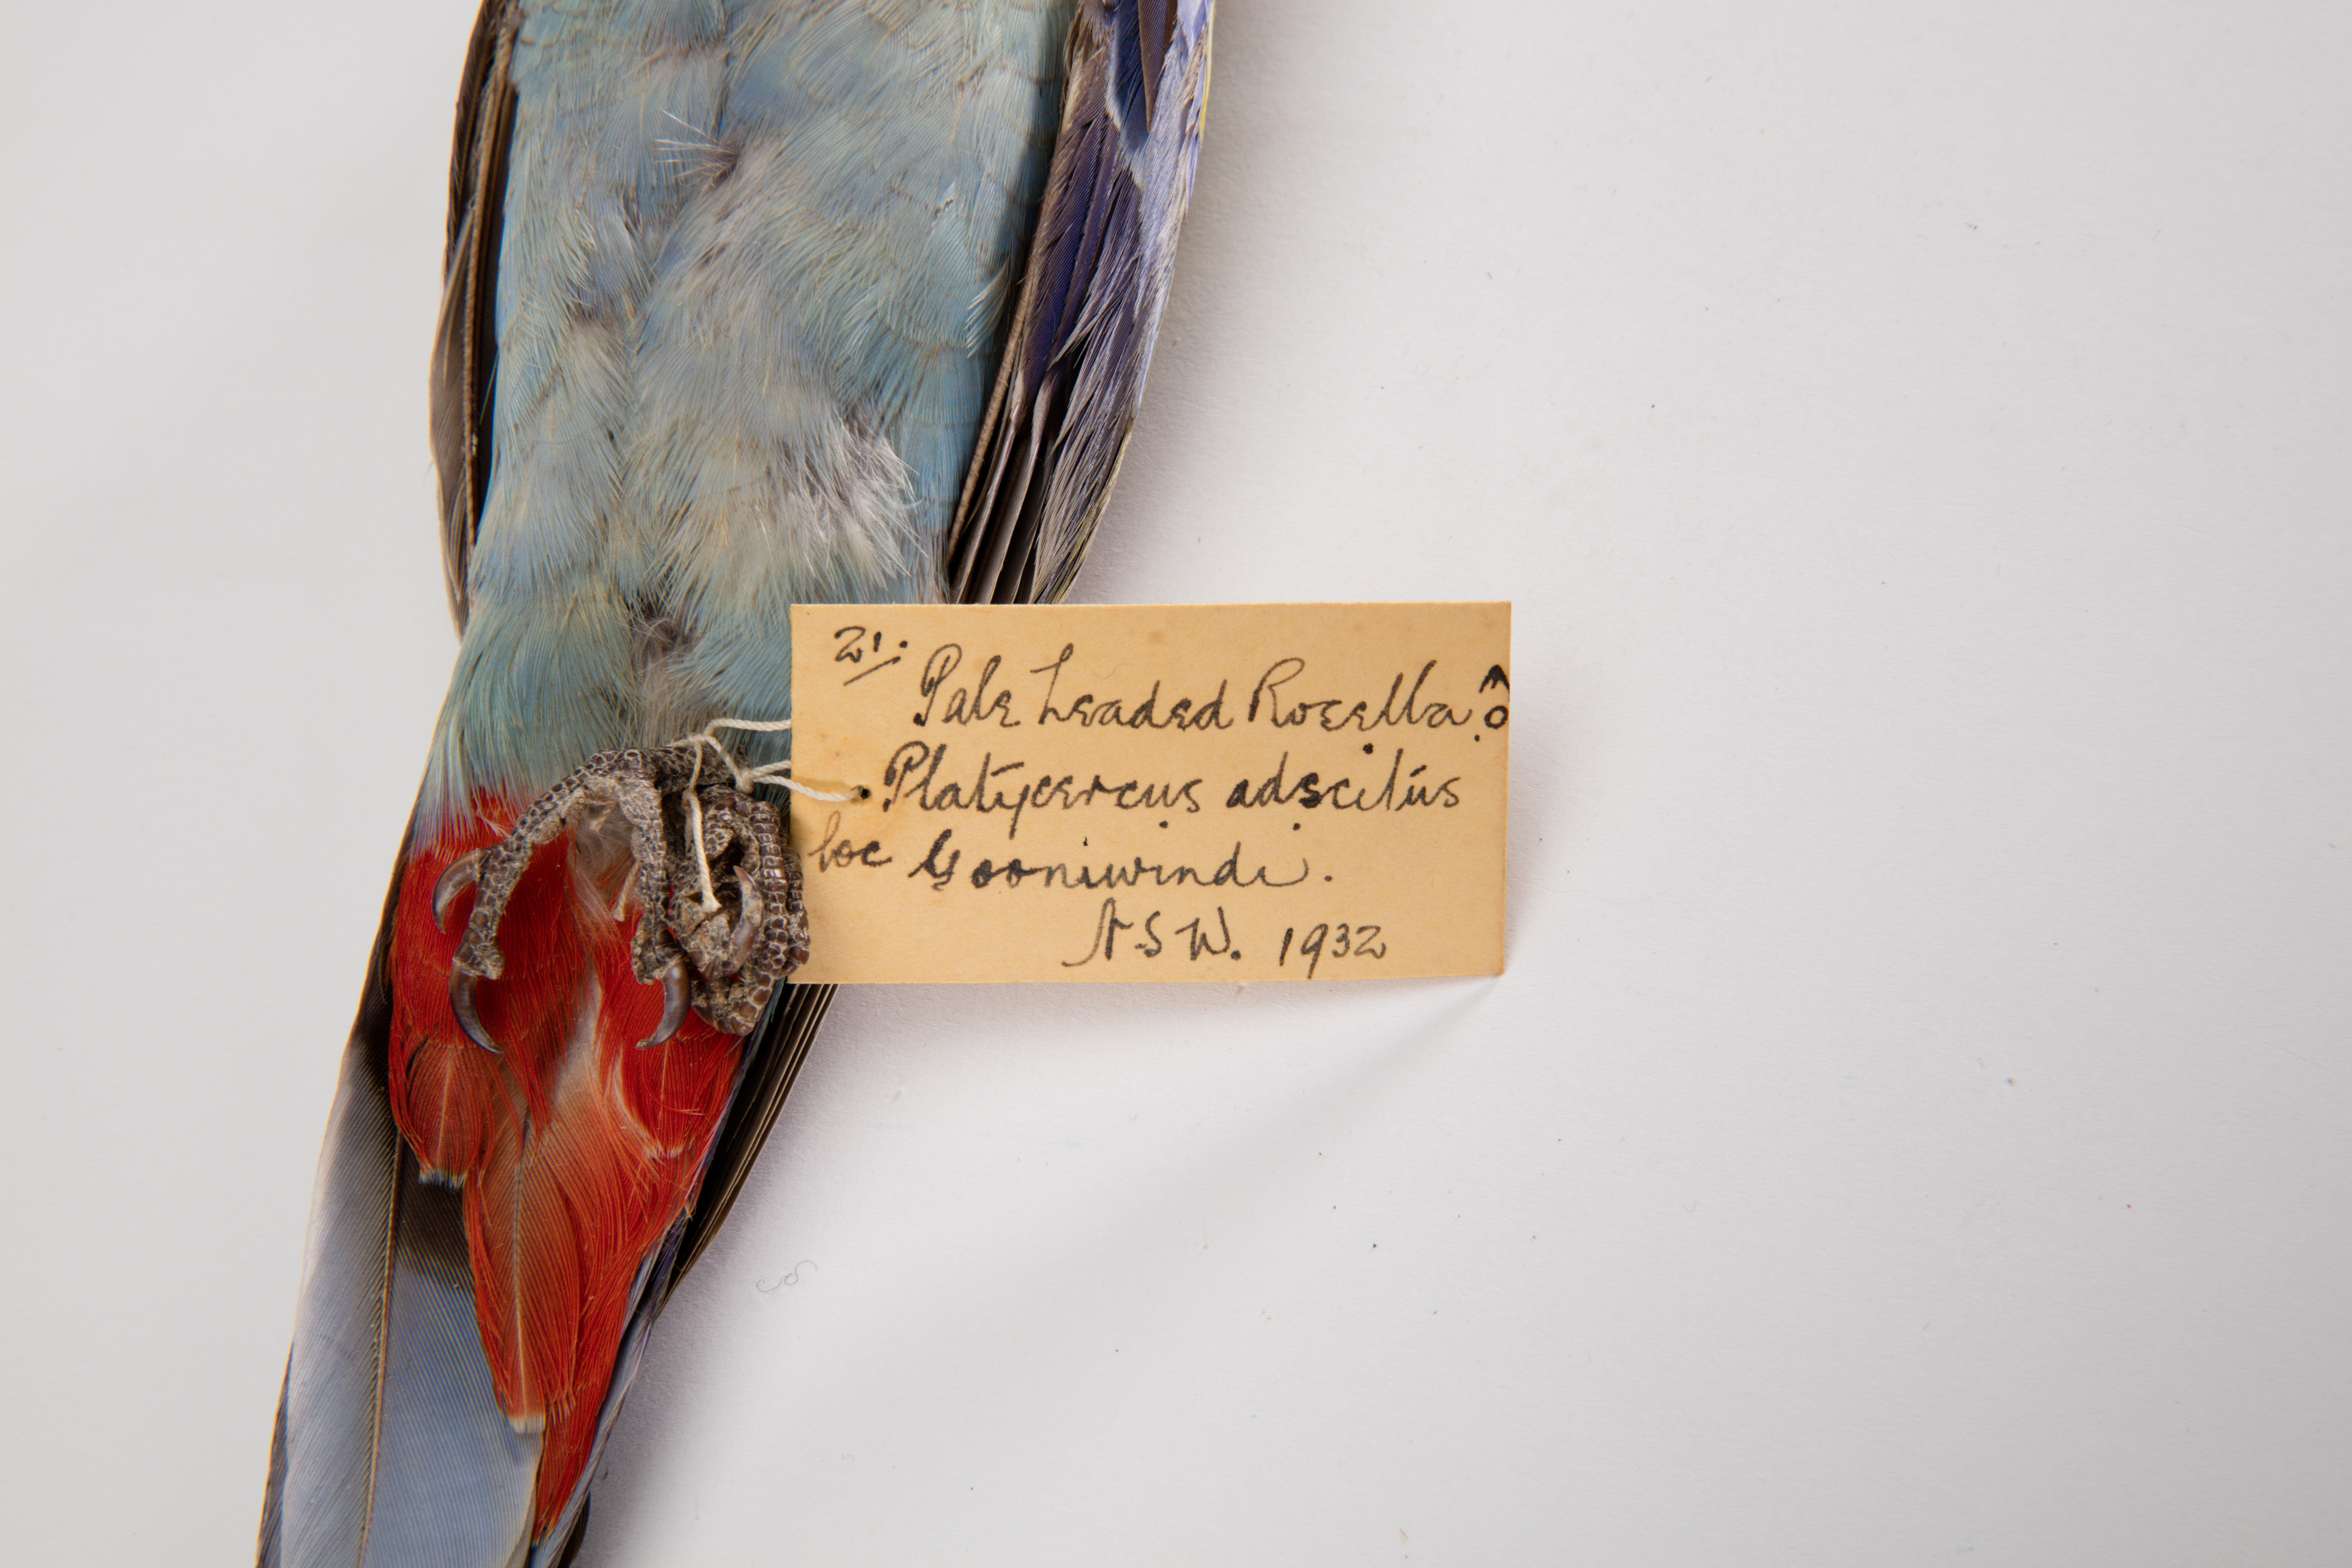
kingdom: Animalia
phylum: Chordata
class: Aves
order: Psittaciformes
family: Psittacidae
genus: Platycercus
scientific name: Platycercus adscitus
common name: Pale-headed rosella
